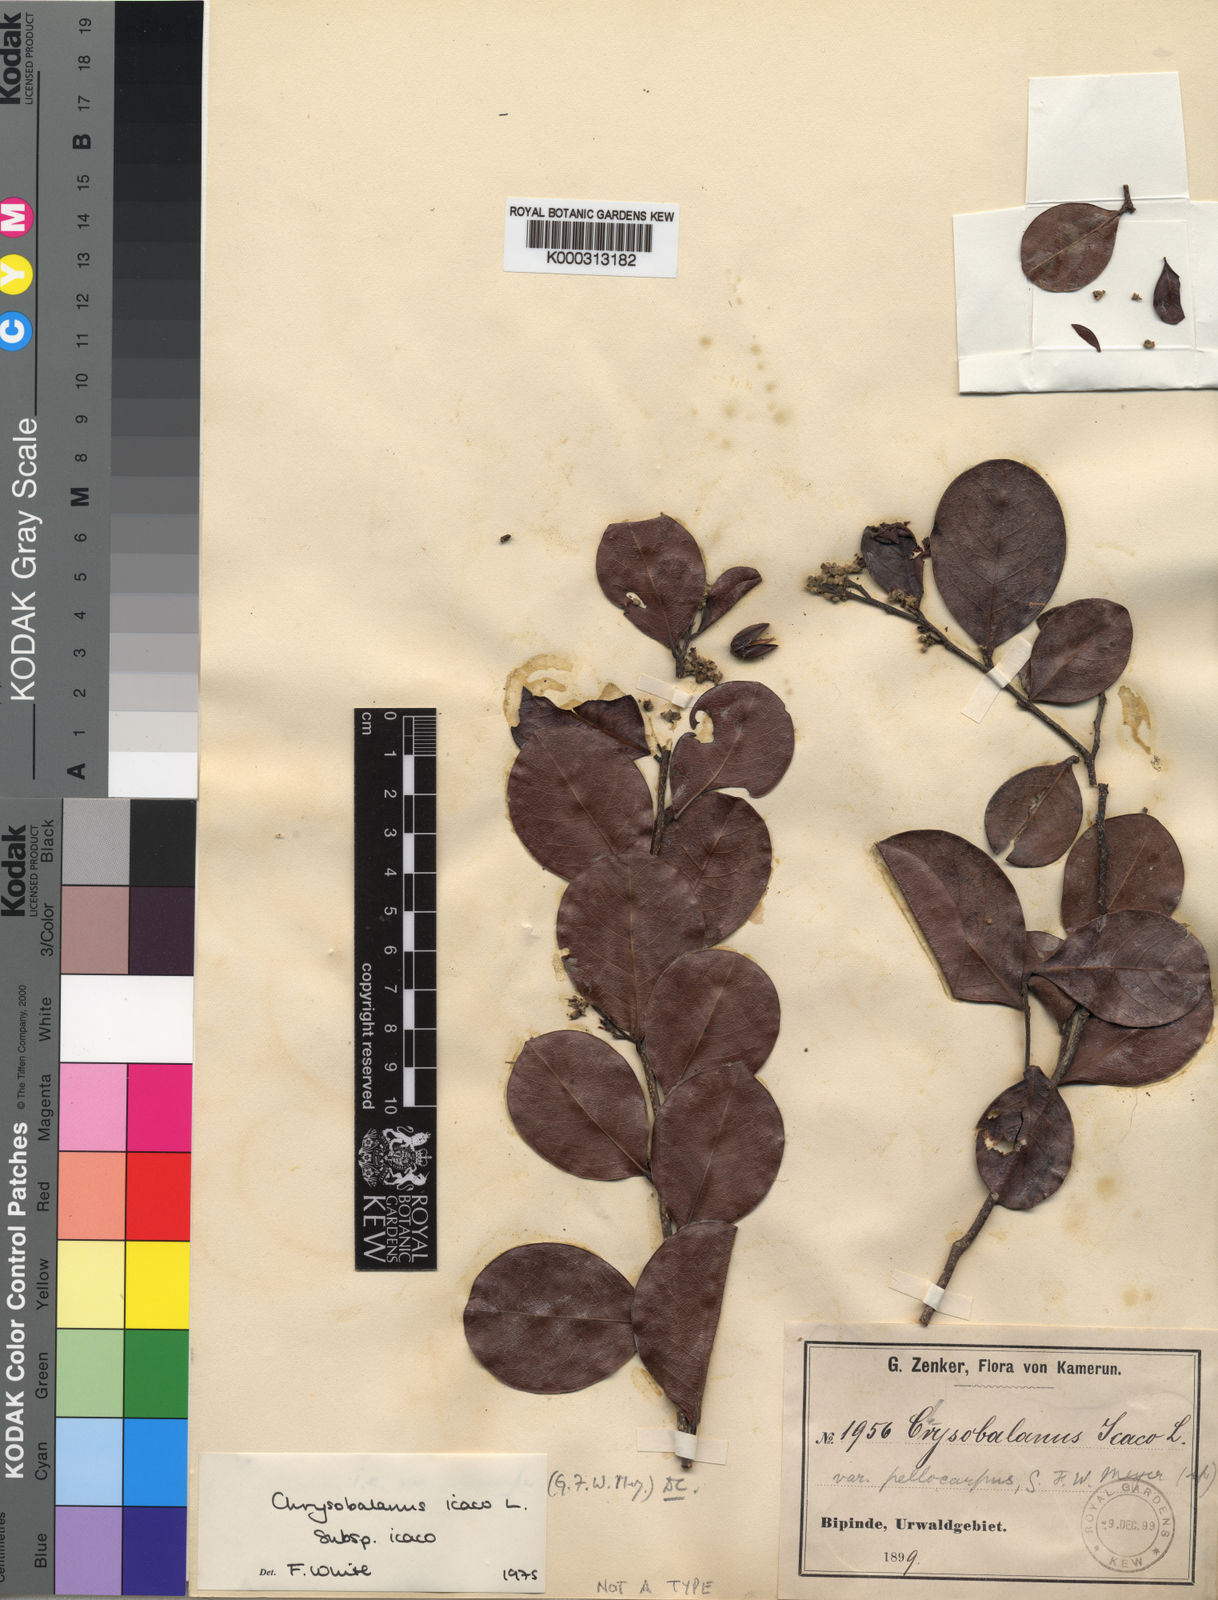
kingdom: Plantae
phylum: Tracheophyta
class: Magnoliopsida
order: Malpighiales
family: Chrysobalanaceae
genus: Chrysobalanus
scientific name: Chrysobalanus icaco
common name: Coco plum
